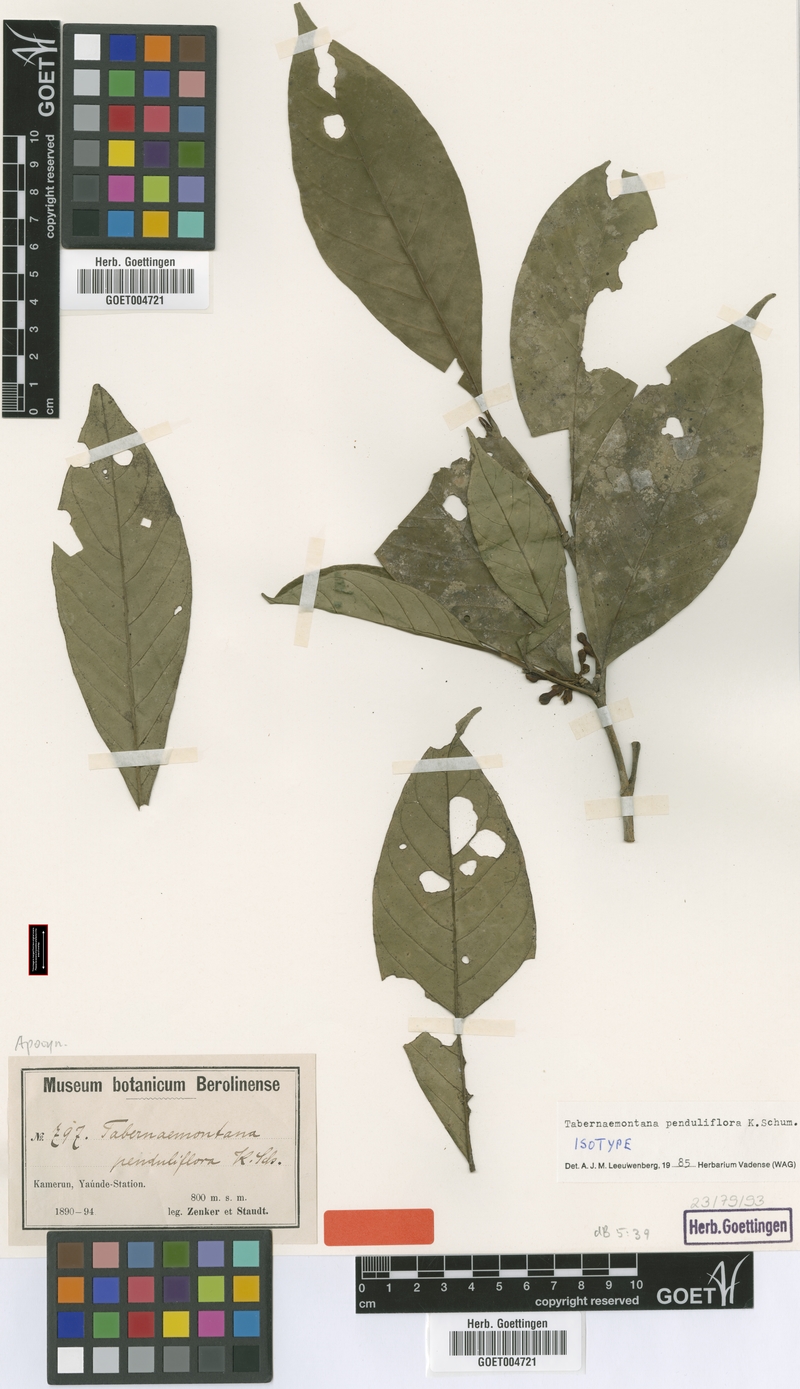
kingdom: Plantae
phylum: Tracheophyta
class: Magnoliopsida
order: Gentianales
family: Apocynaceae
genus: Tabernaemontana
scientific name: Tabernaemontana penduliflora
